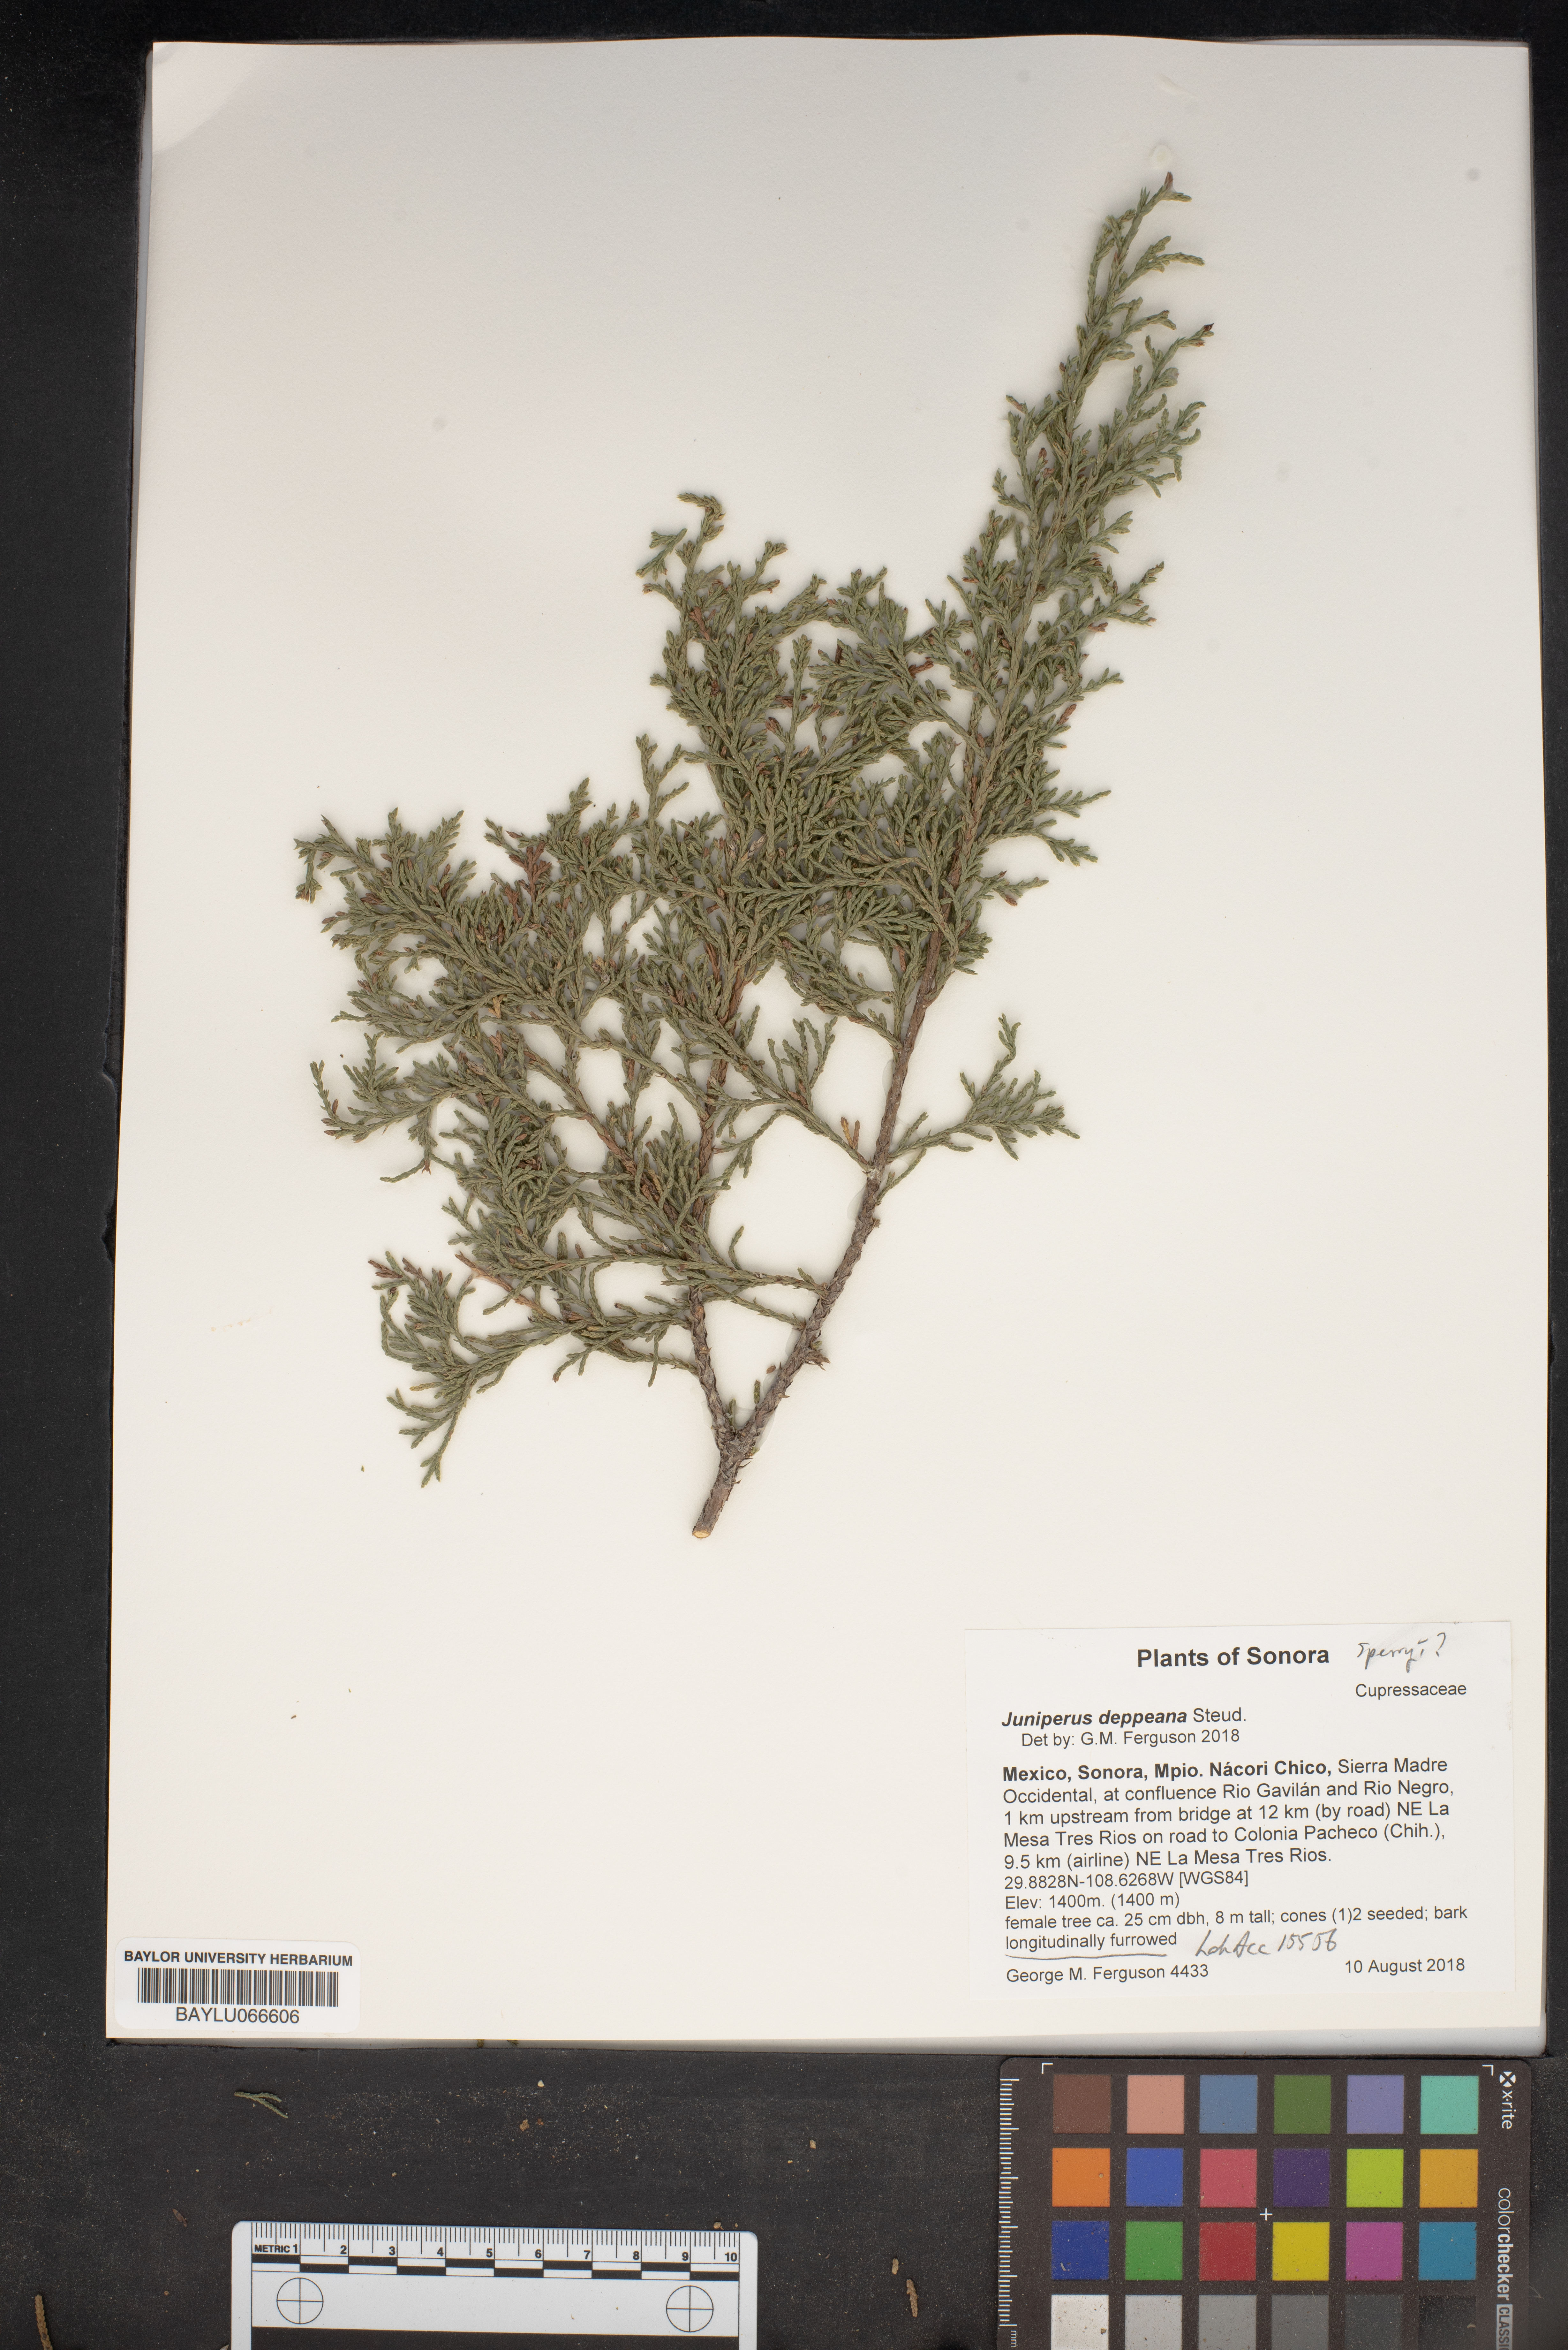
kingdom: Plantae
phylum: Tracheophyta
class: Pinopsida
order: Pinales
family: Cupressaceae
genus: Juniperus
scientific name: Juniperus deppeana
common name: Alligator juniper
